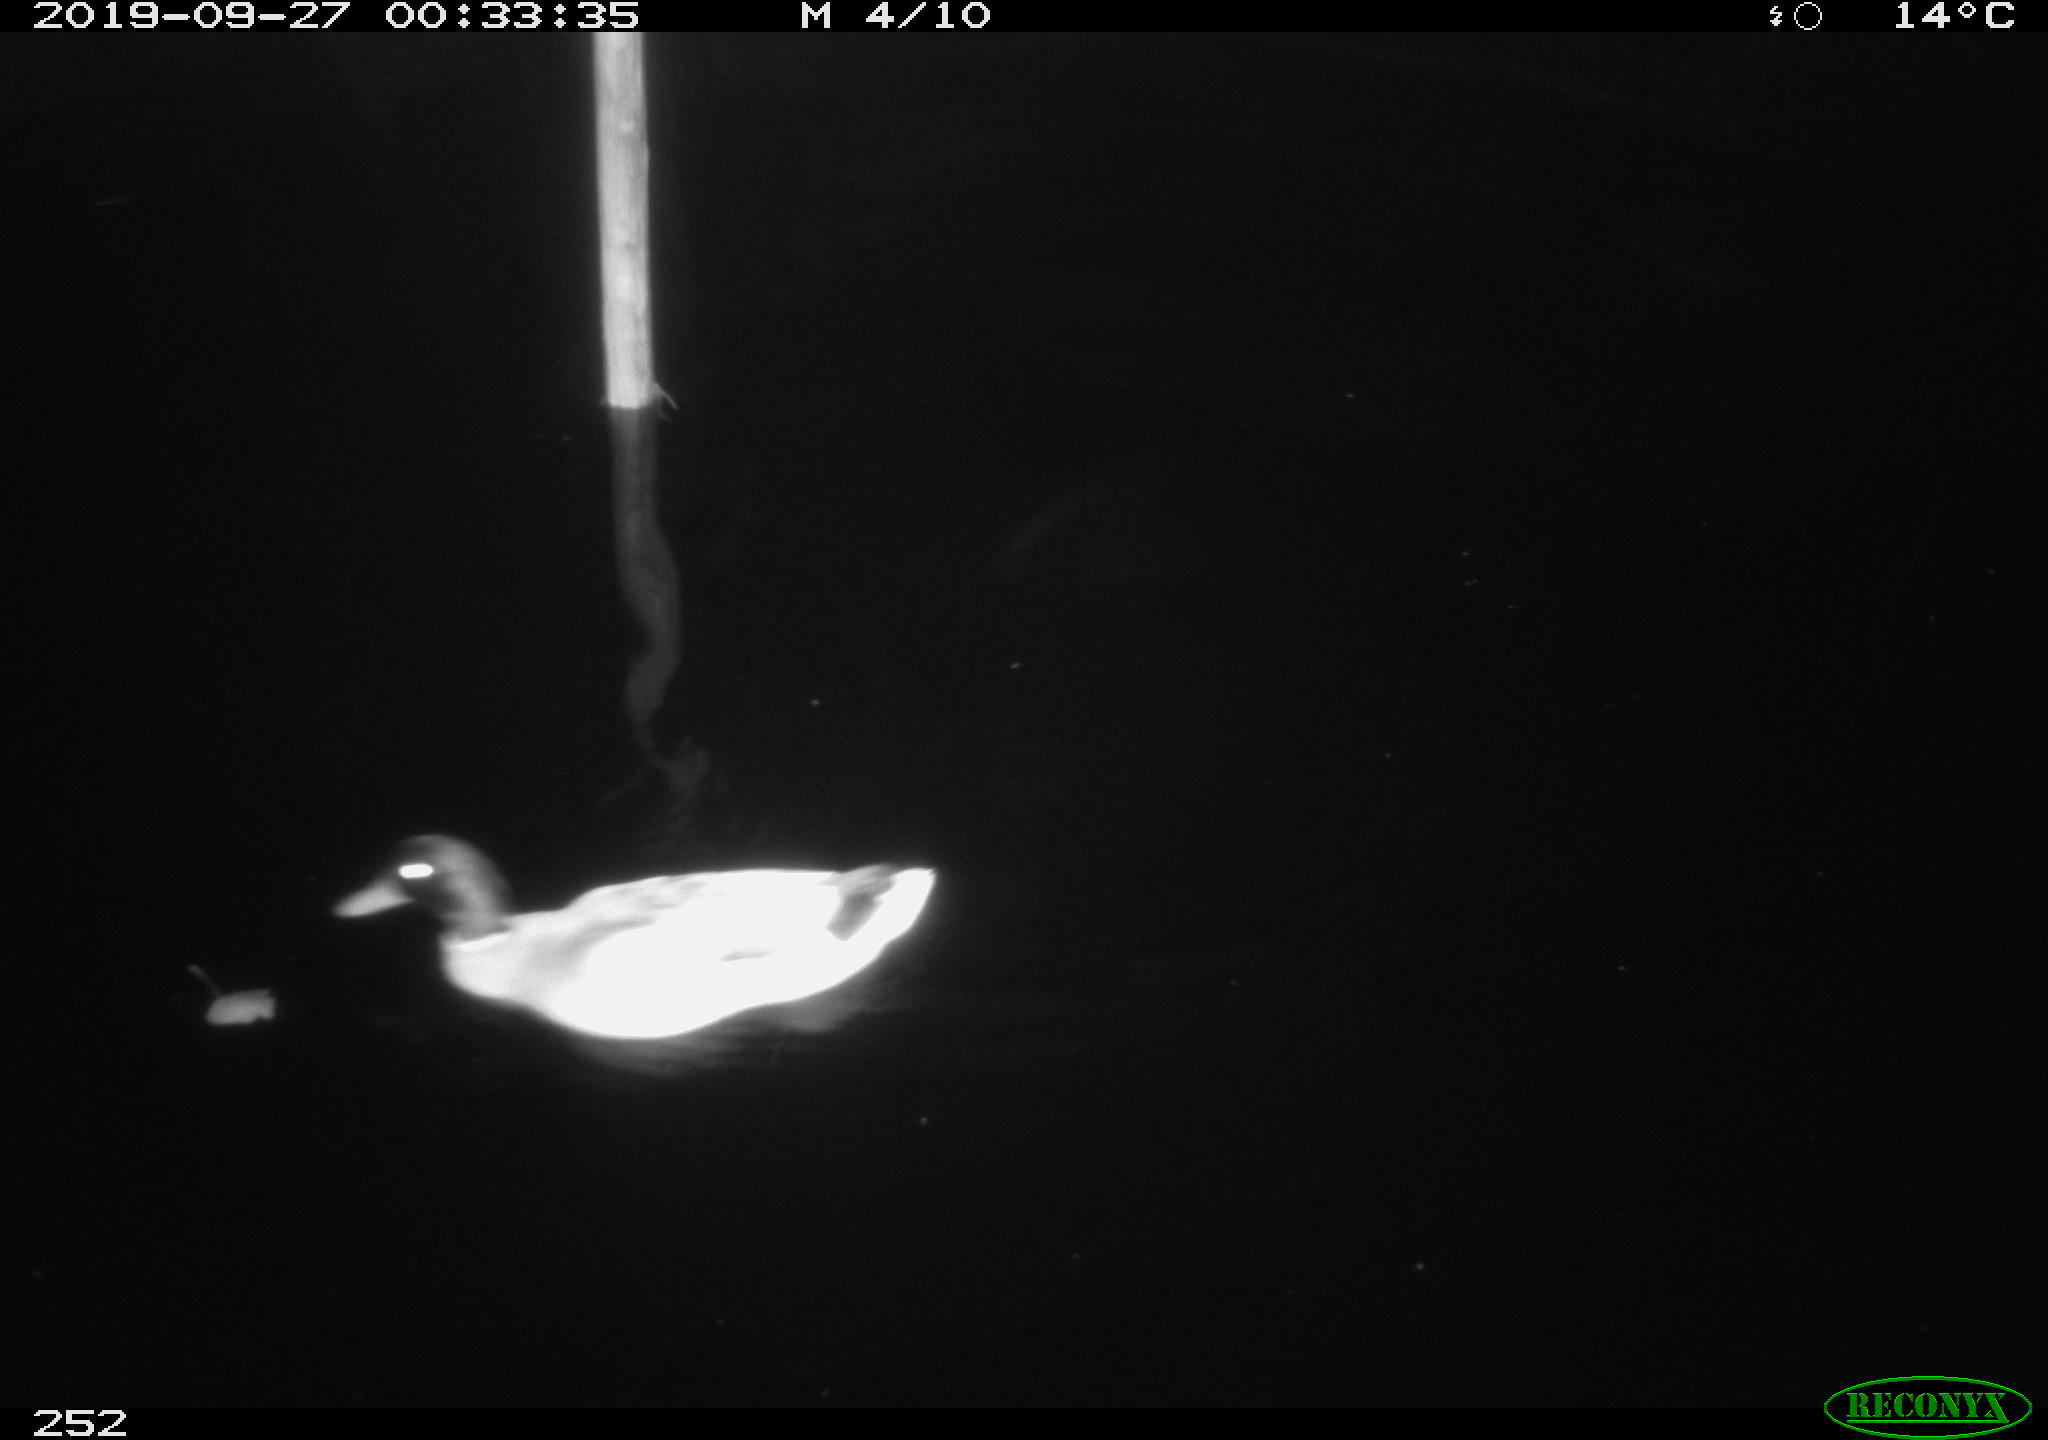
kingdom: Animalia
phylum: Chordata
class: Aves
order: Anseriformes
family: Anatidae
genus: Anas
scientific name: Anas platyrhynchos
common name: Mallard
